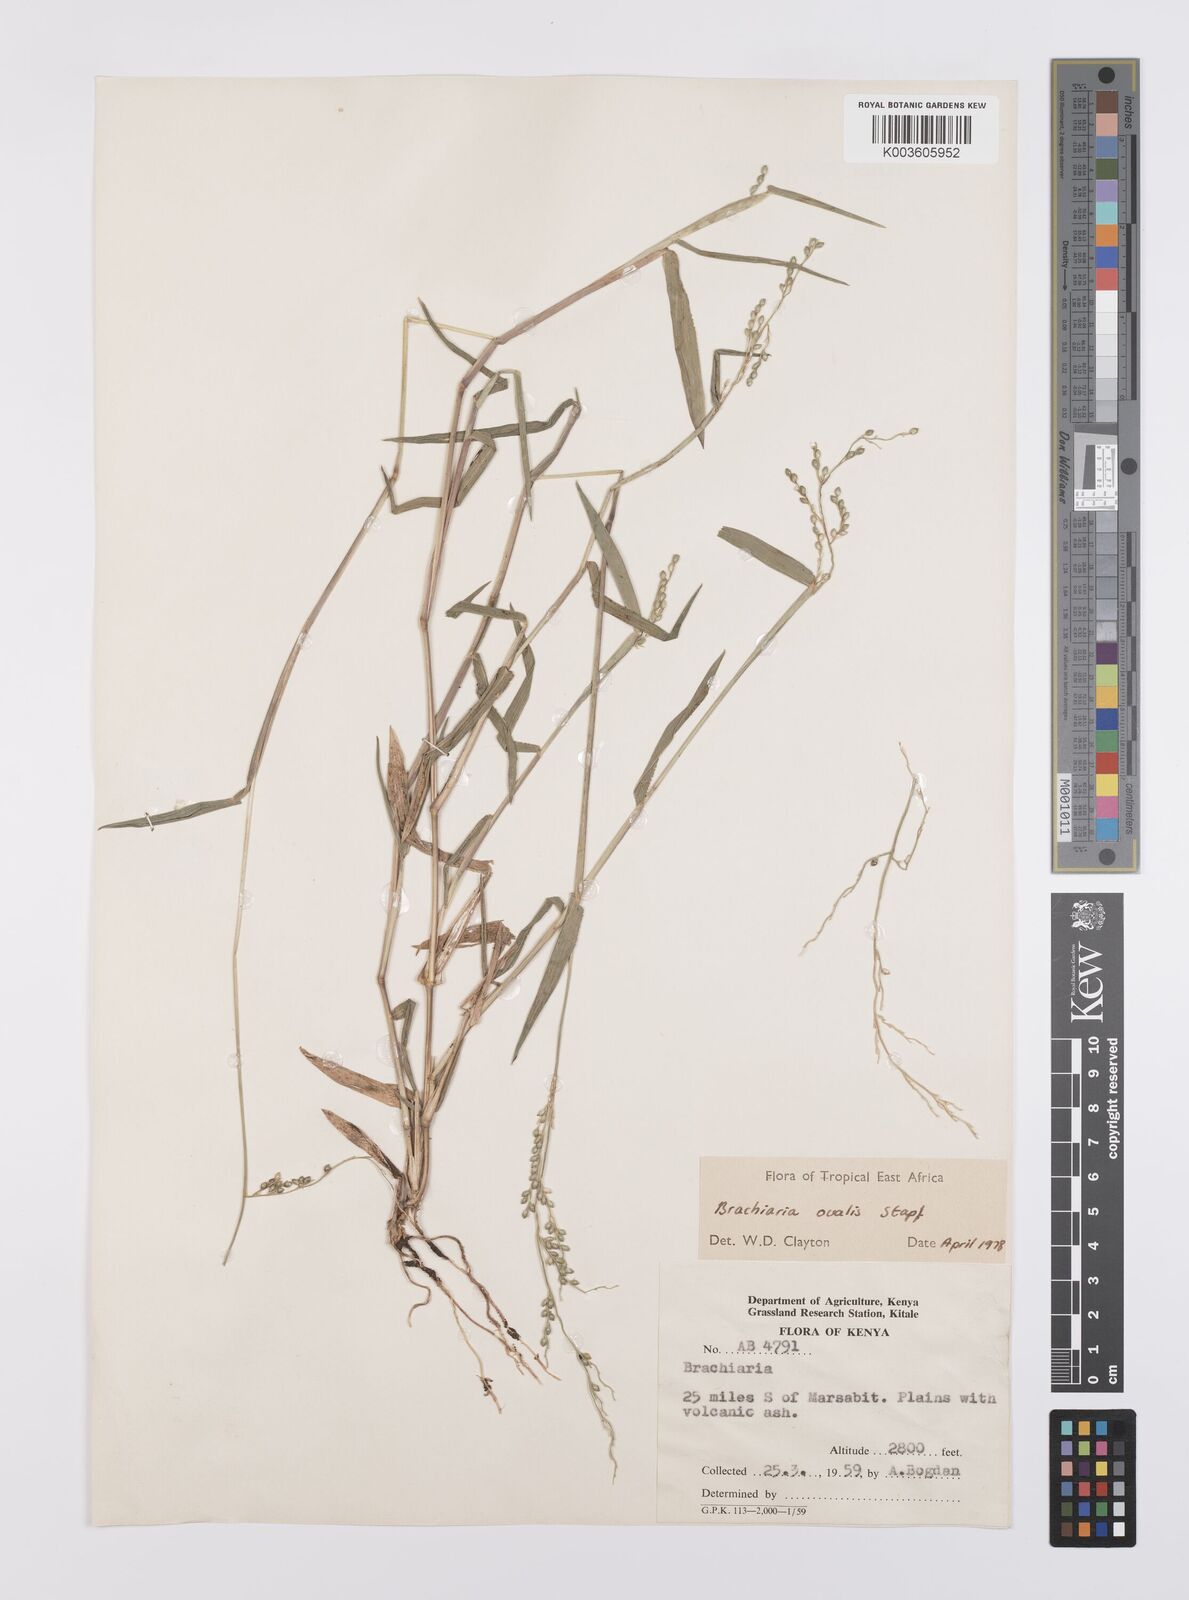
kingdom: Plantae
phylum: Tracheophyta
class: Liliopsida
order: Poales
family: Poaceae
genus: Urochloa
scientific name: Urochloa ovalis
